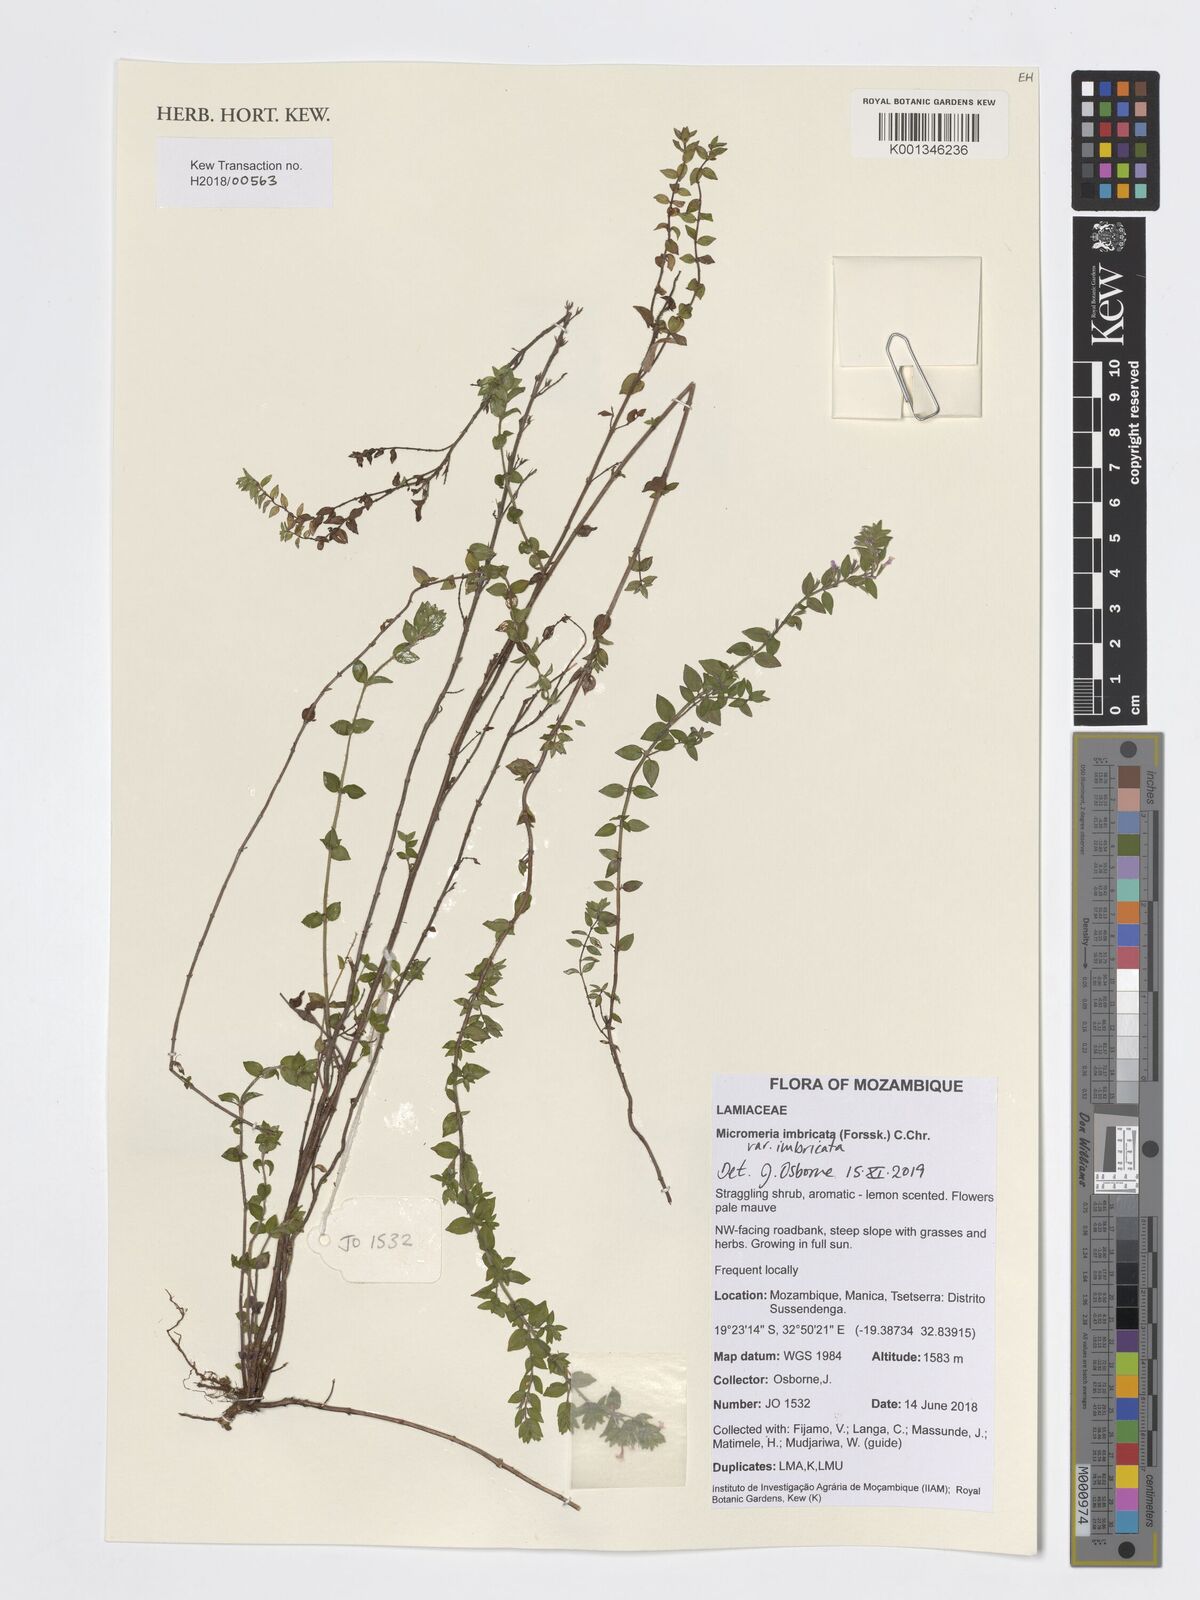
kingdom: Plantae
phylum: Tracheophyta
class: Magnoliopsida
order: Lamiales
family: Lamiaceae
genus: Micromeria
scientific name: Micromeria imbricata
